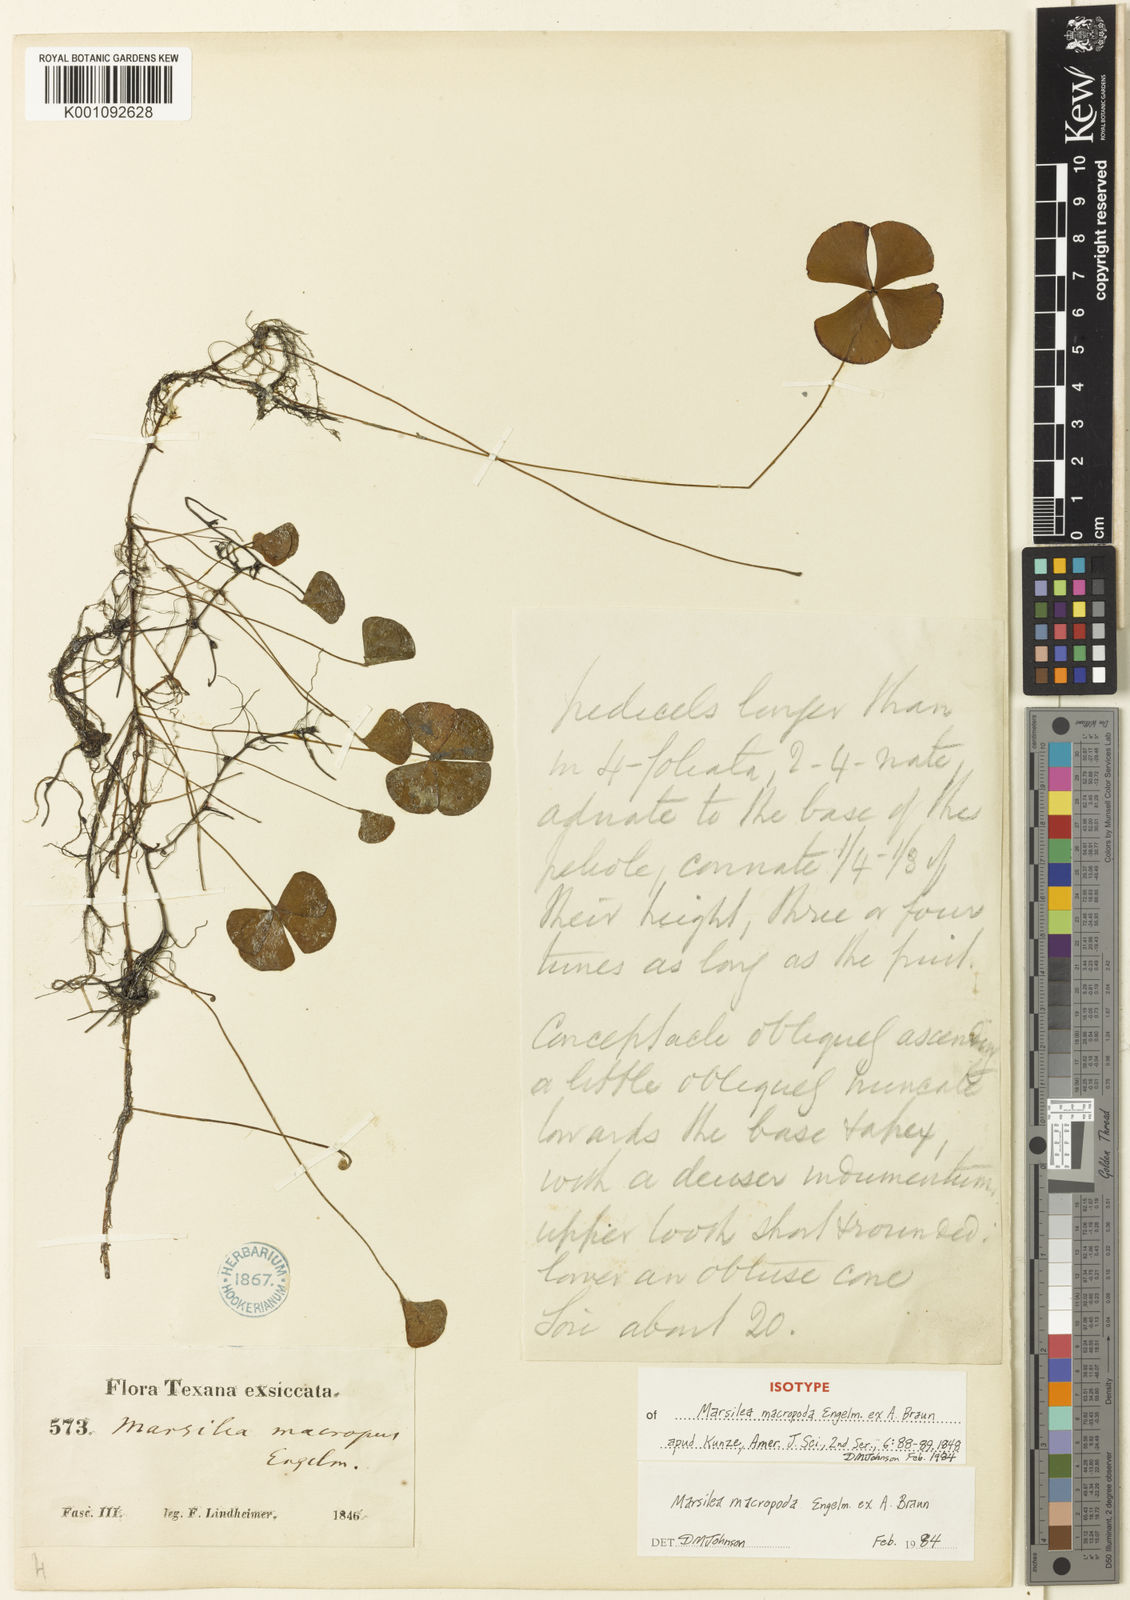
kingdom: Plantae
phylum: Tracheophyta
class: Polypodiopsida
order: Salviniales
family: Marsileaceae
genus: Marsilea
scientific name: Marsilea macropoda
